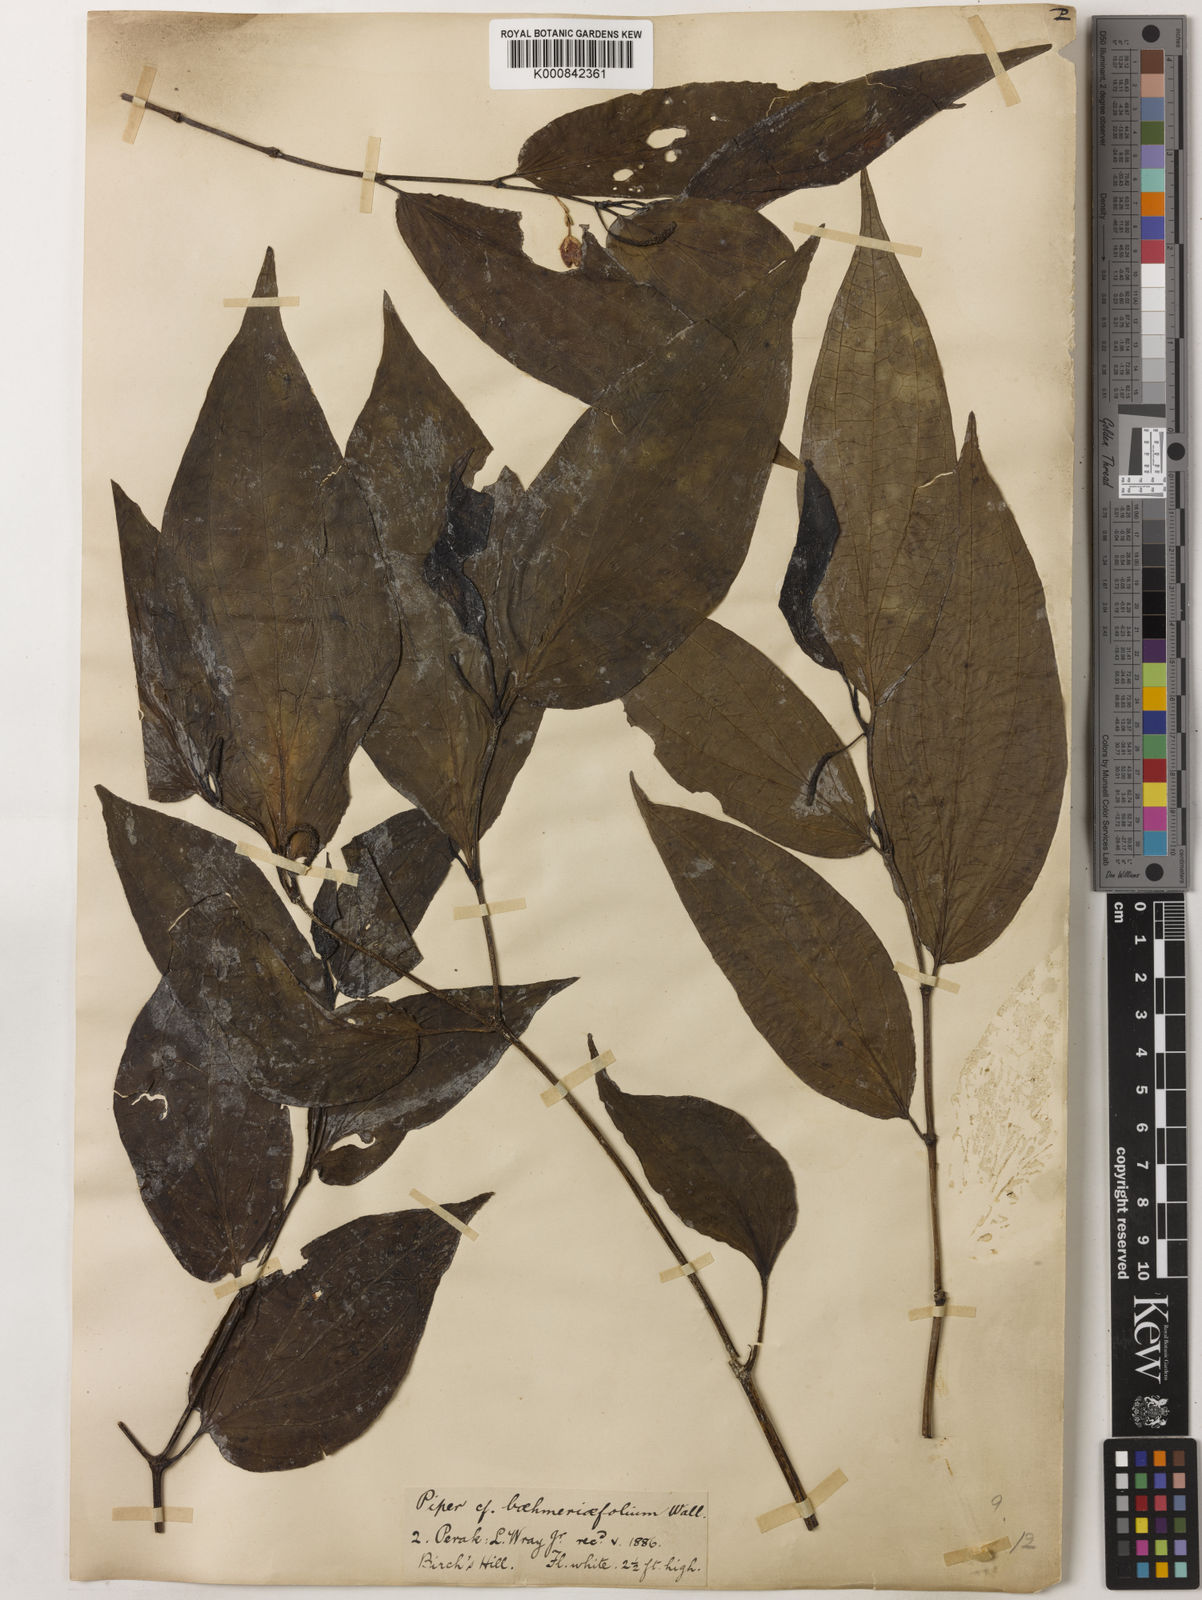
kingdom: Plantae
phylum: Tracheophyta
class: Magnoliopsida
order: Piperales
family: Piperaceae
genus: Piper
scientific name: Piper boehmeriifolium
